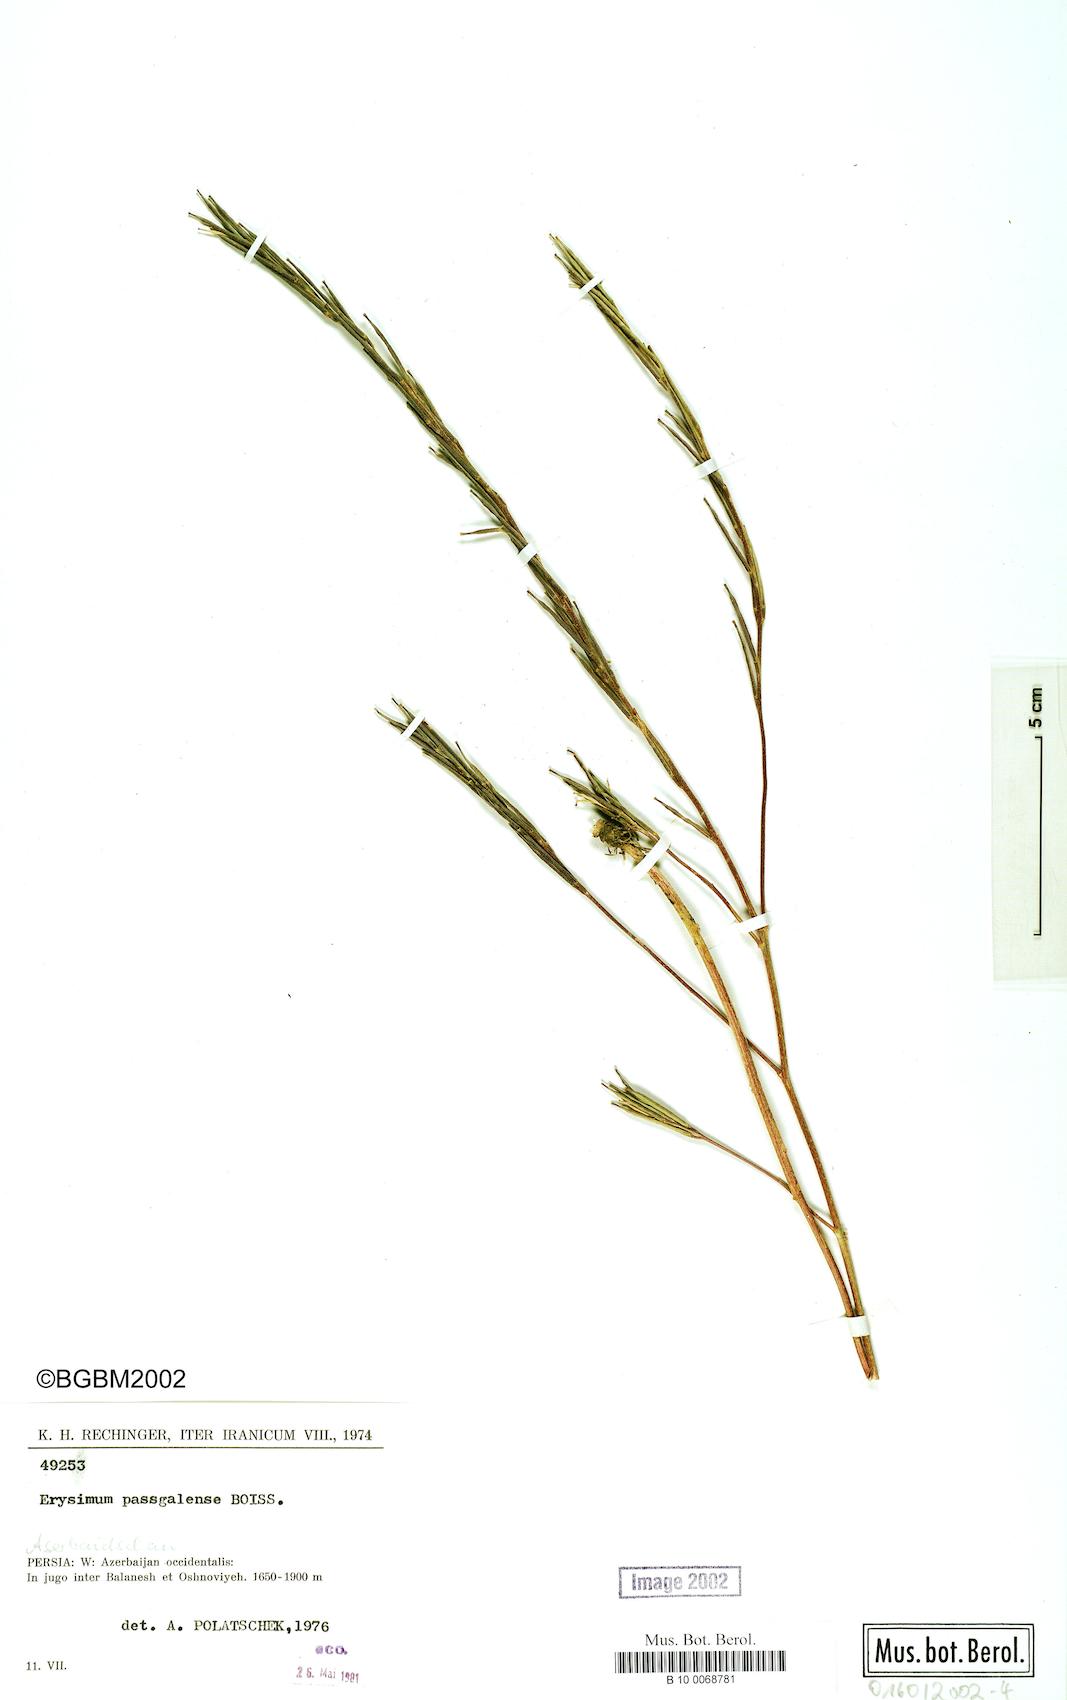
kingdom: Plantae
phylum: Tracheophyta
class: Magnoliopsida
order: Brassicales
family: Brassicaceae
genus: Erysimum
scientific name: Erysimum aucherianum
